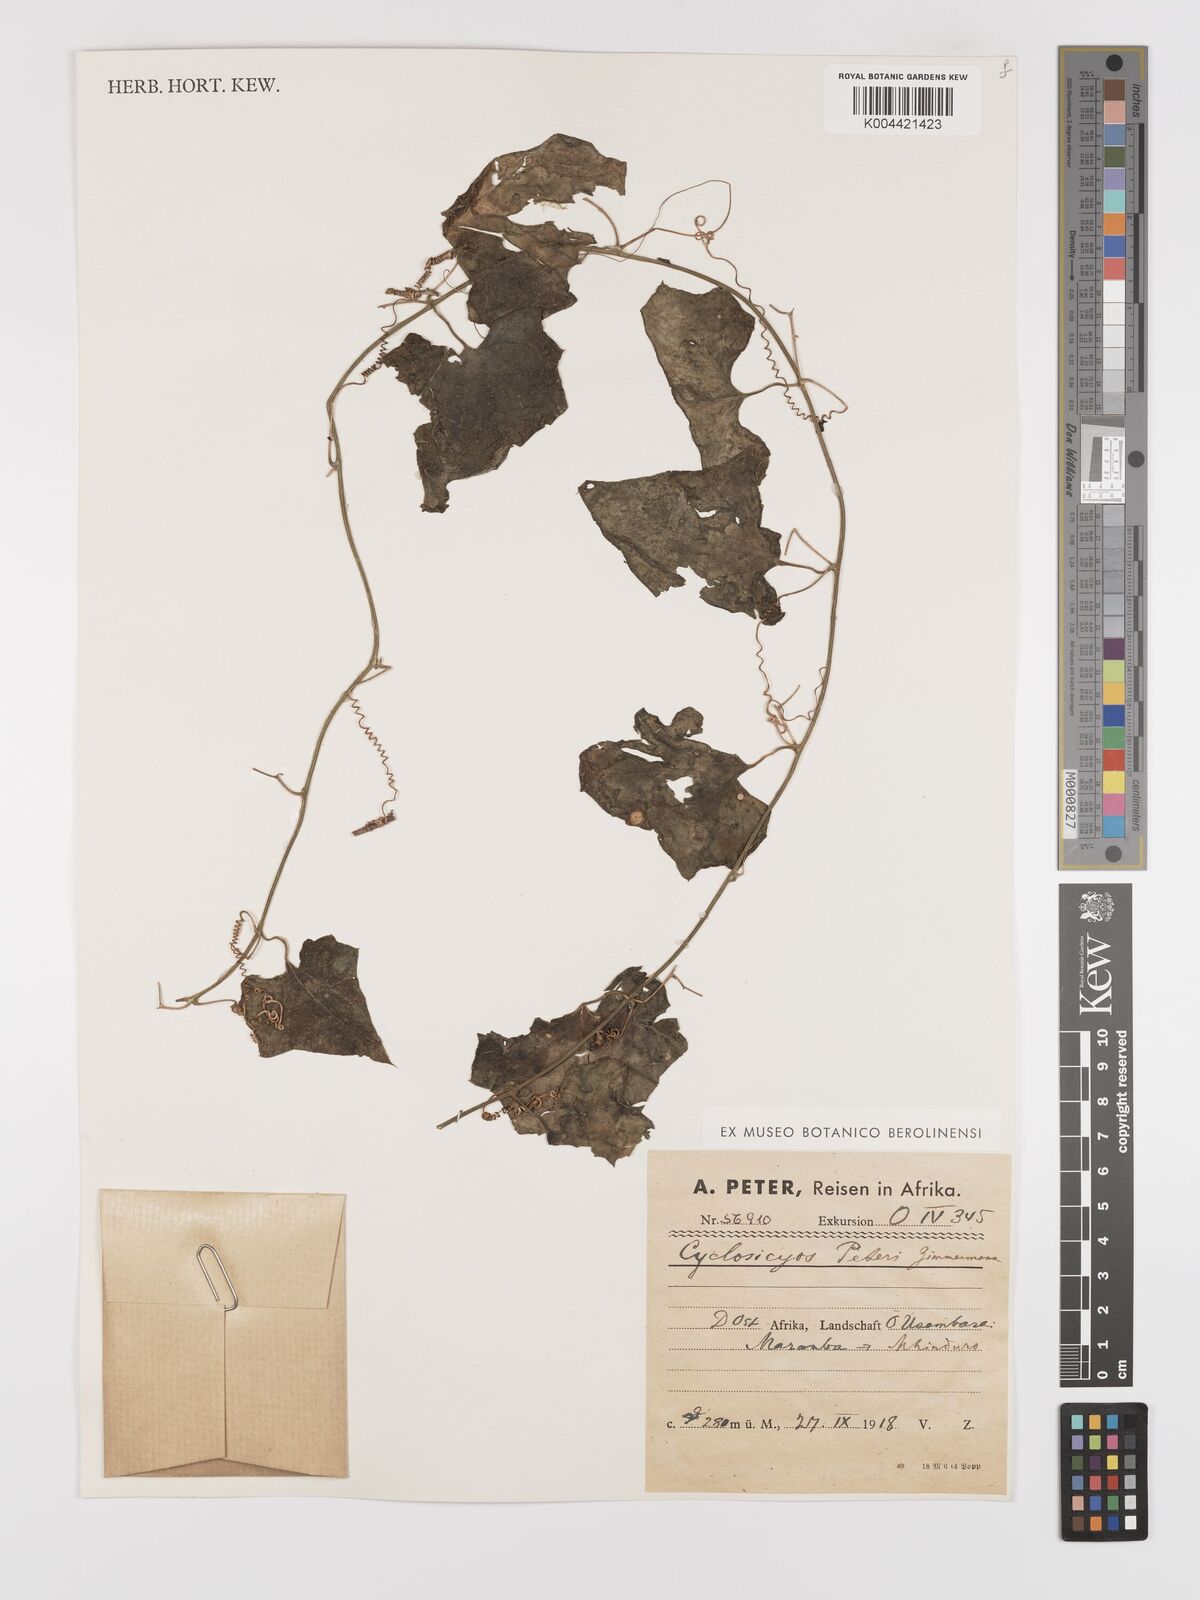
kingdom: Plantae
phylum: Tracheophyta
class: Magnoliopsida
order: Cucurbitales
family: Cucurbitaceae
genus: Cyclantheropsis
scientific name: Cyclantheropsis parviflora
